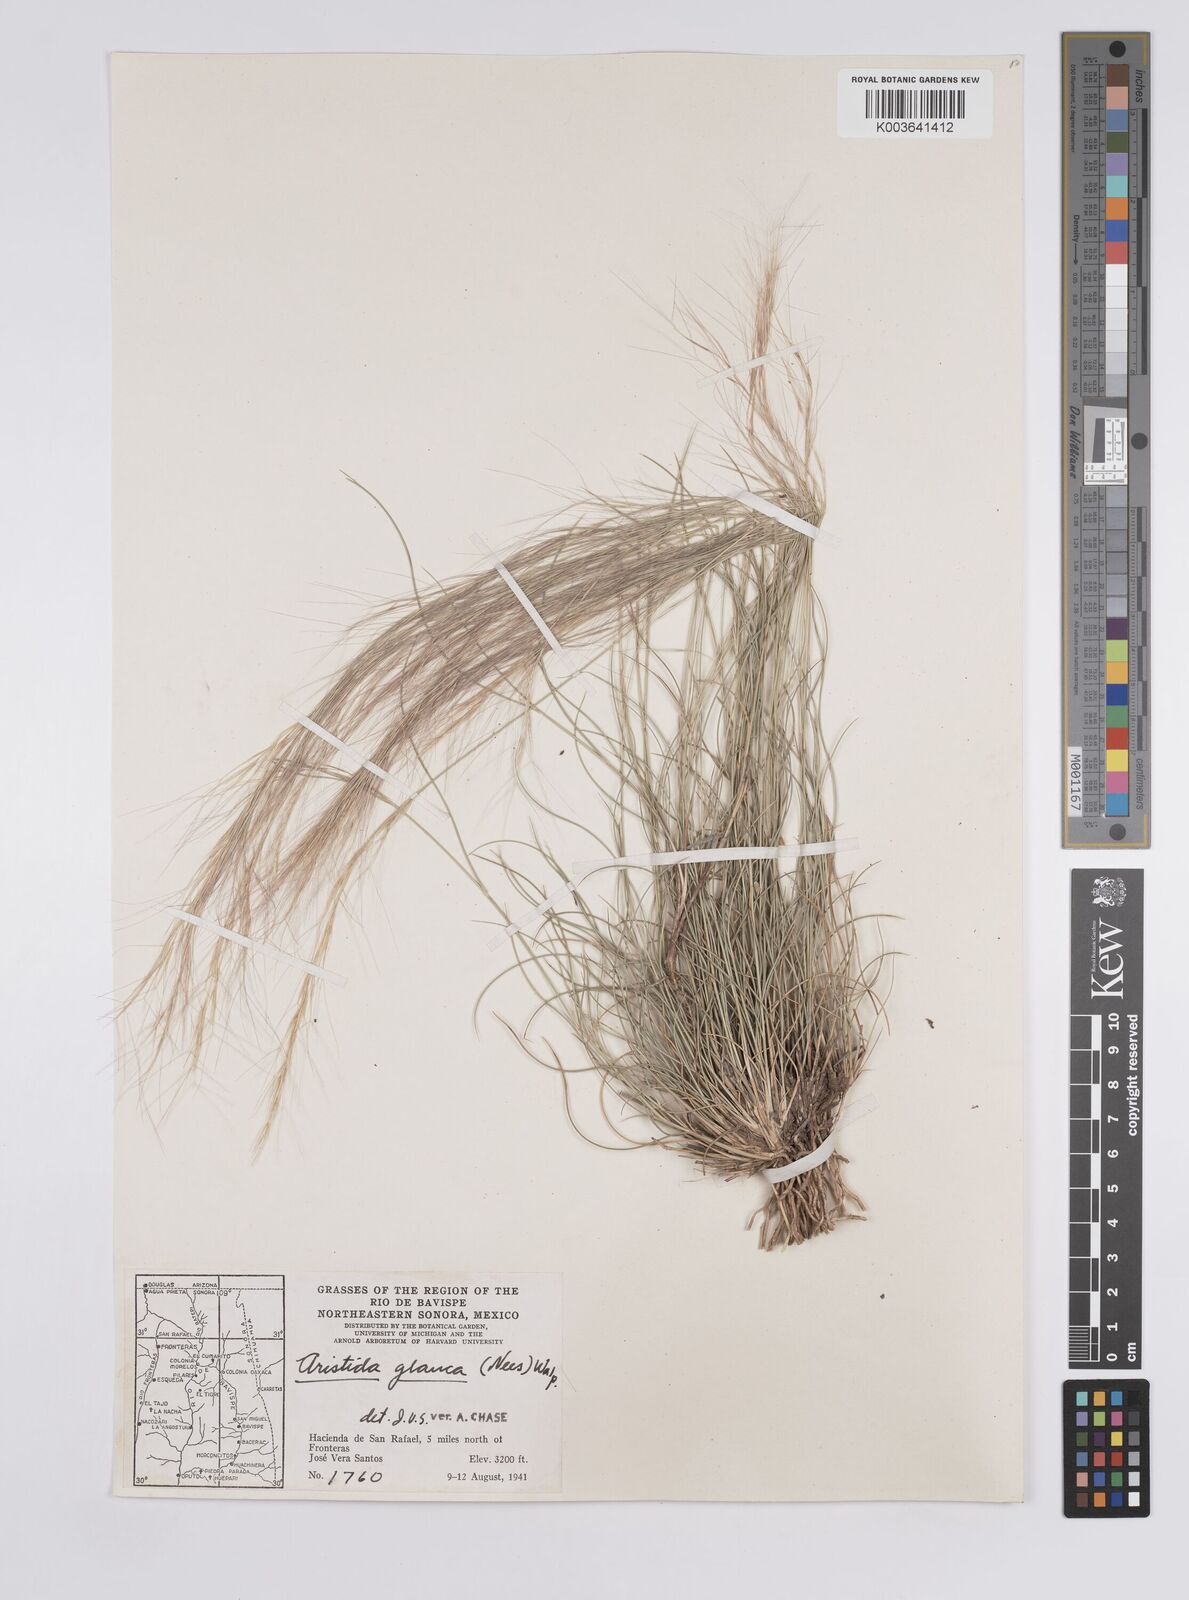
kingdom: Plantae
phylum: Tracheophyta
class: Liliopsida
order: Poales
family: Poaceae
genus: Aristida
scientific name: Aristida purpurea
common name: Purple threeawn
